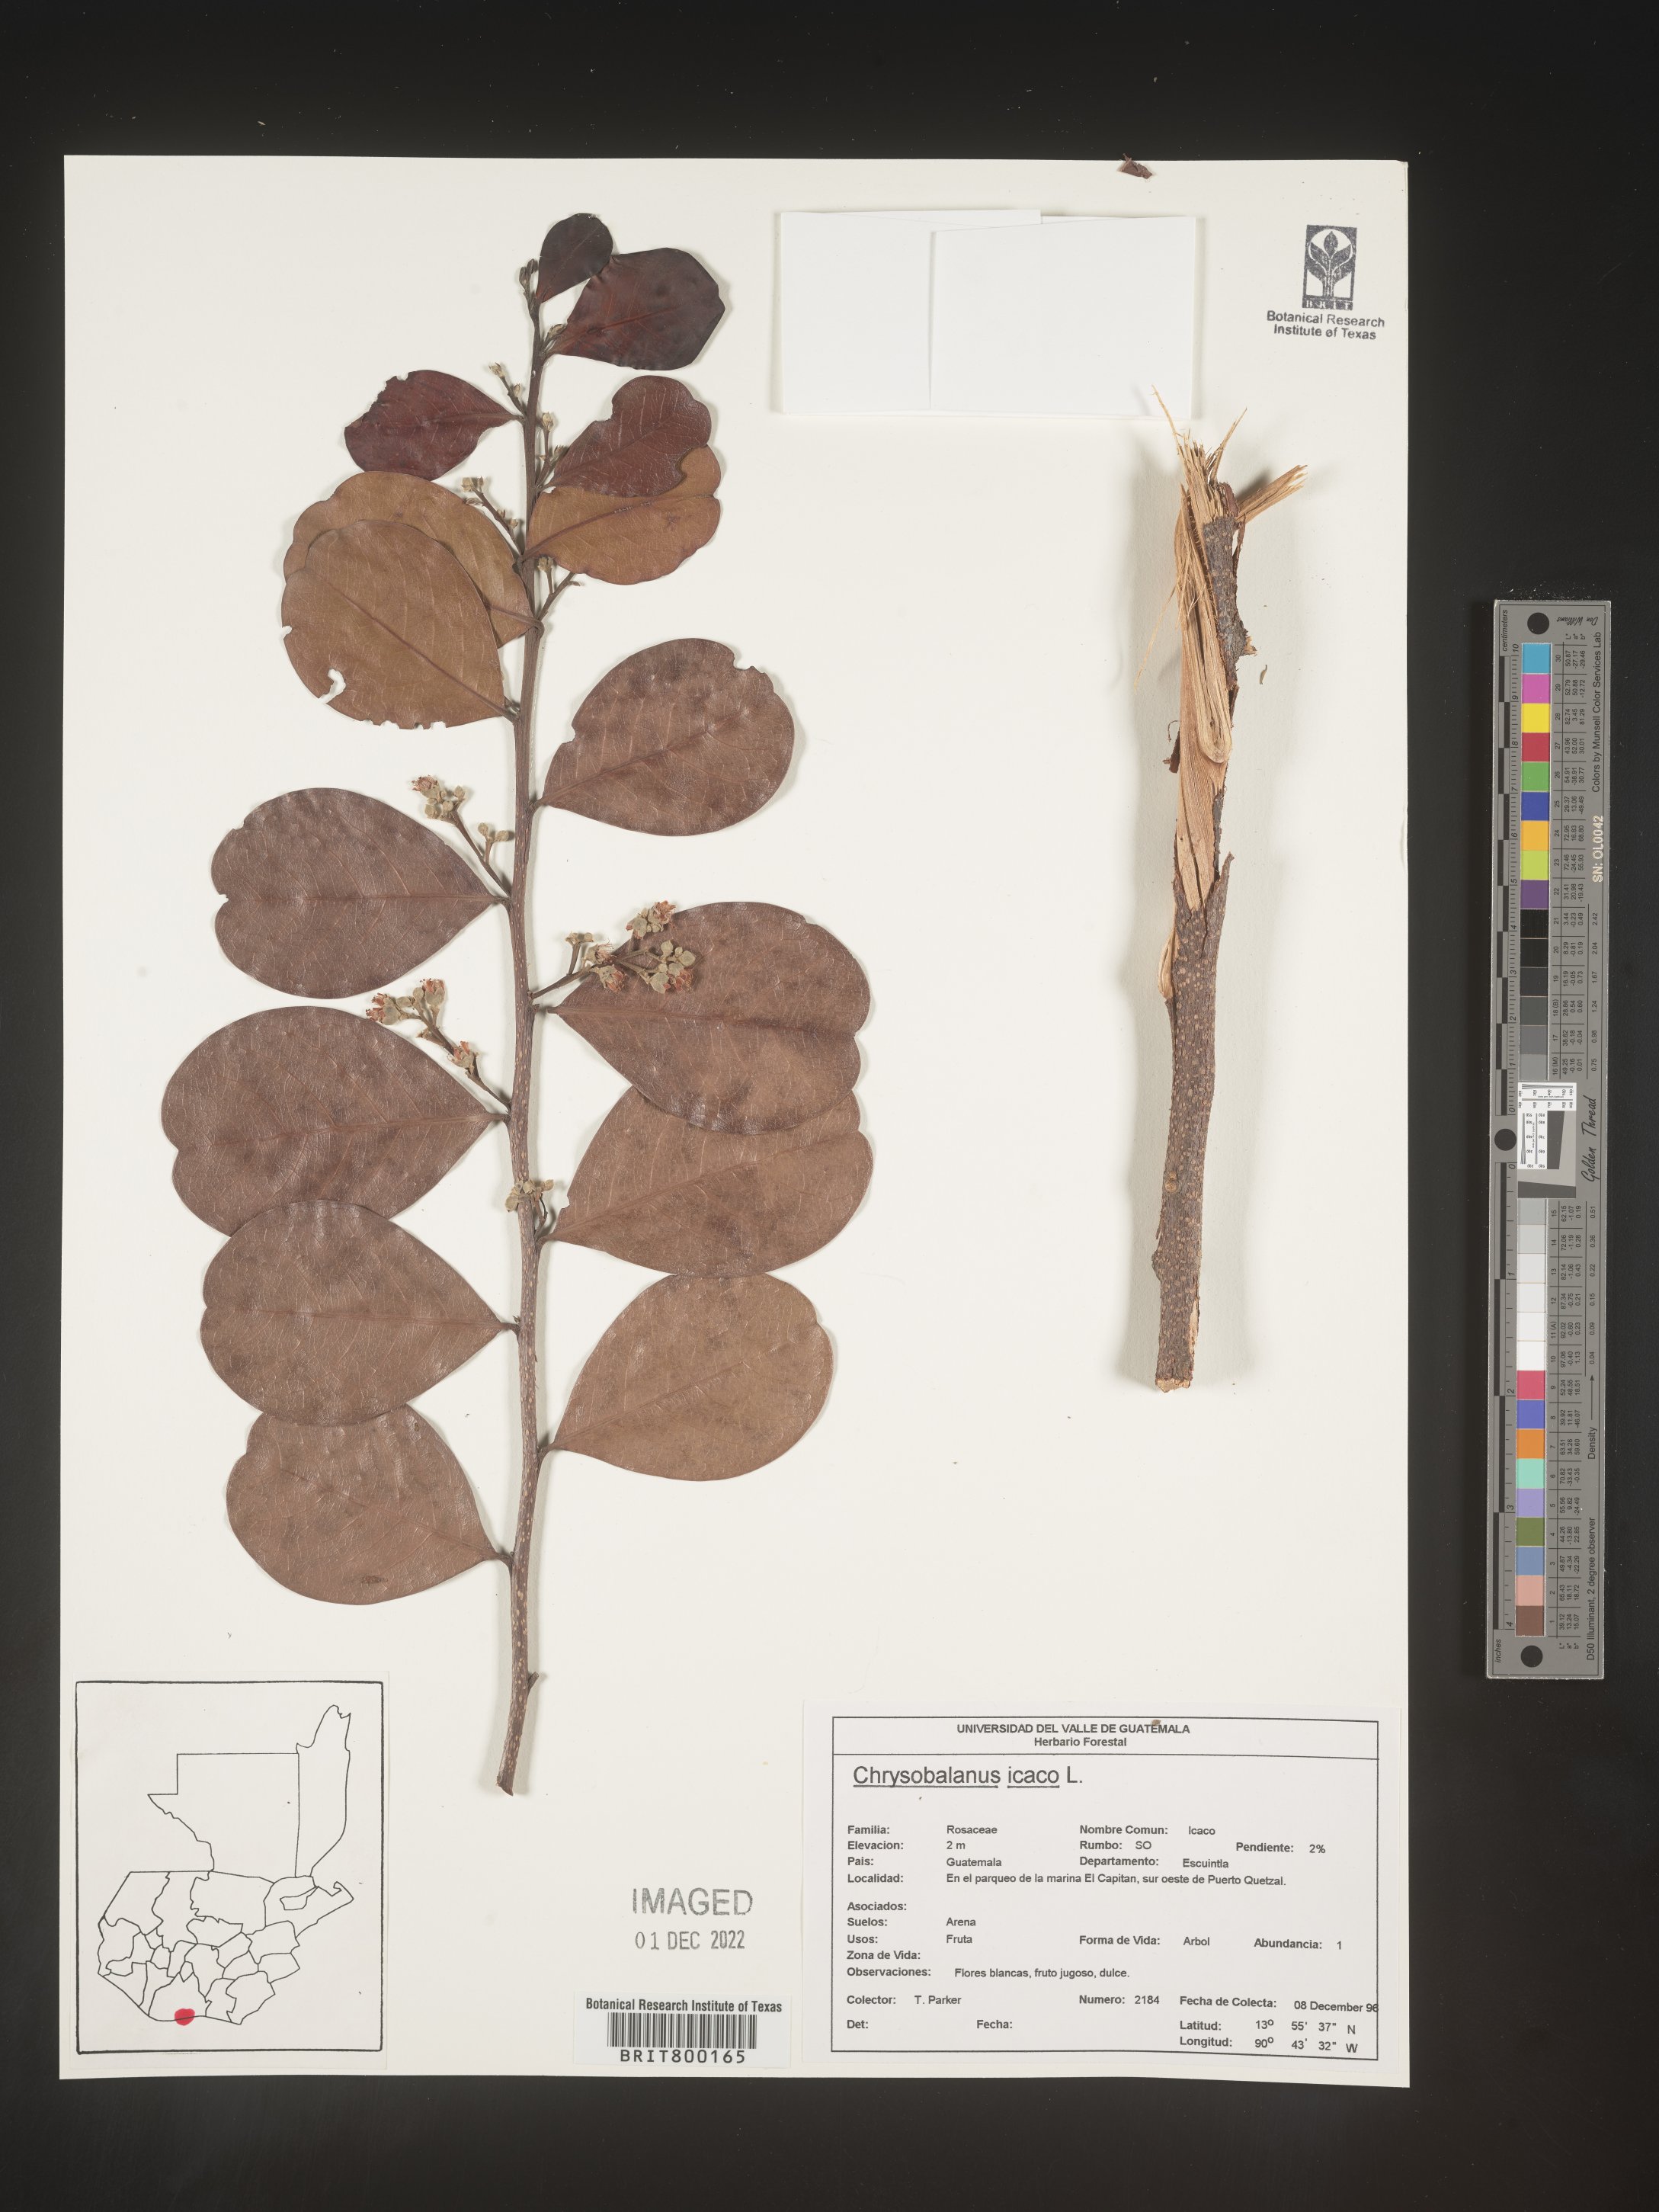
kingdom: Plantae
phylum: Tracheophyta
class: Magnoliopsida
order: Malpighiales
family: Chrysobalanaceae
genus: Chrysobalanus
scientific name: Chrysobalanus
